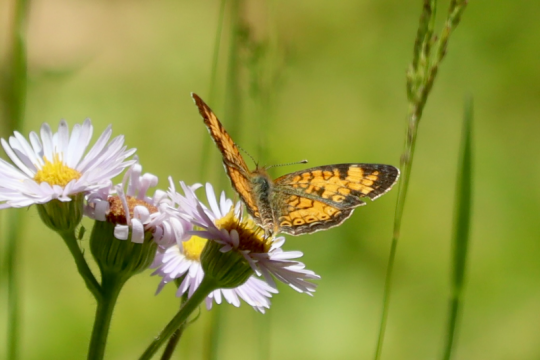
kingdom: Animalia
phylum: Arthropoda
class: Insecta
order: Lepidoptera
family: Nymphalidae
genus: Phyciodes
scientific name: Phyciodes
